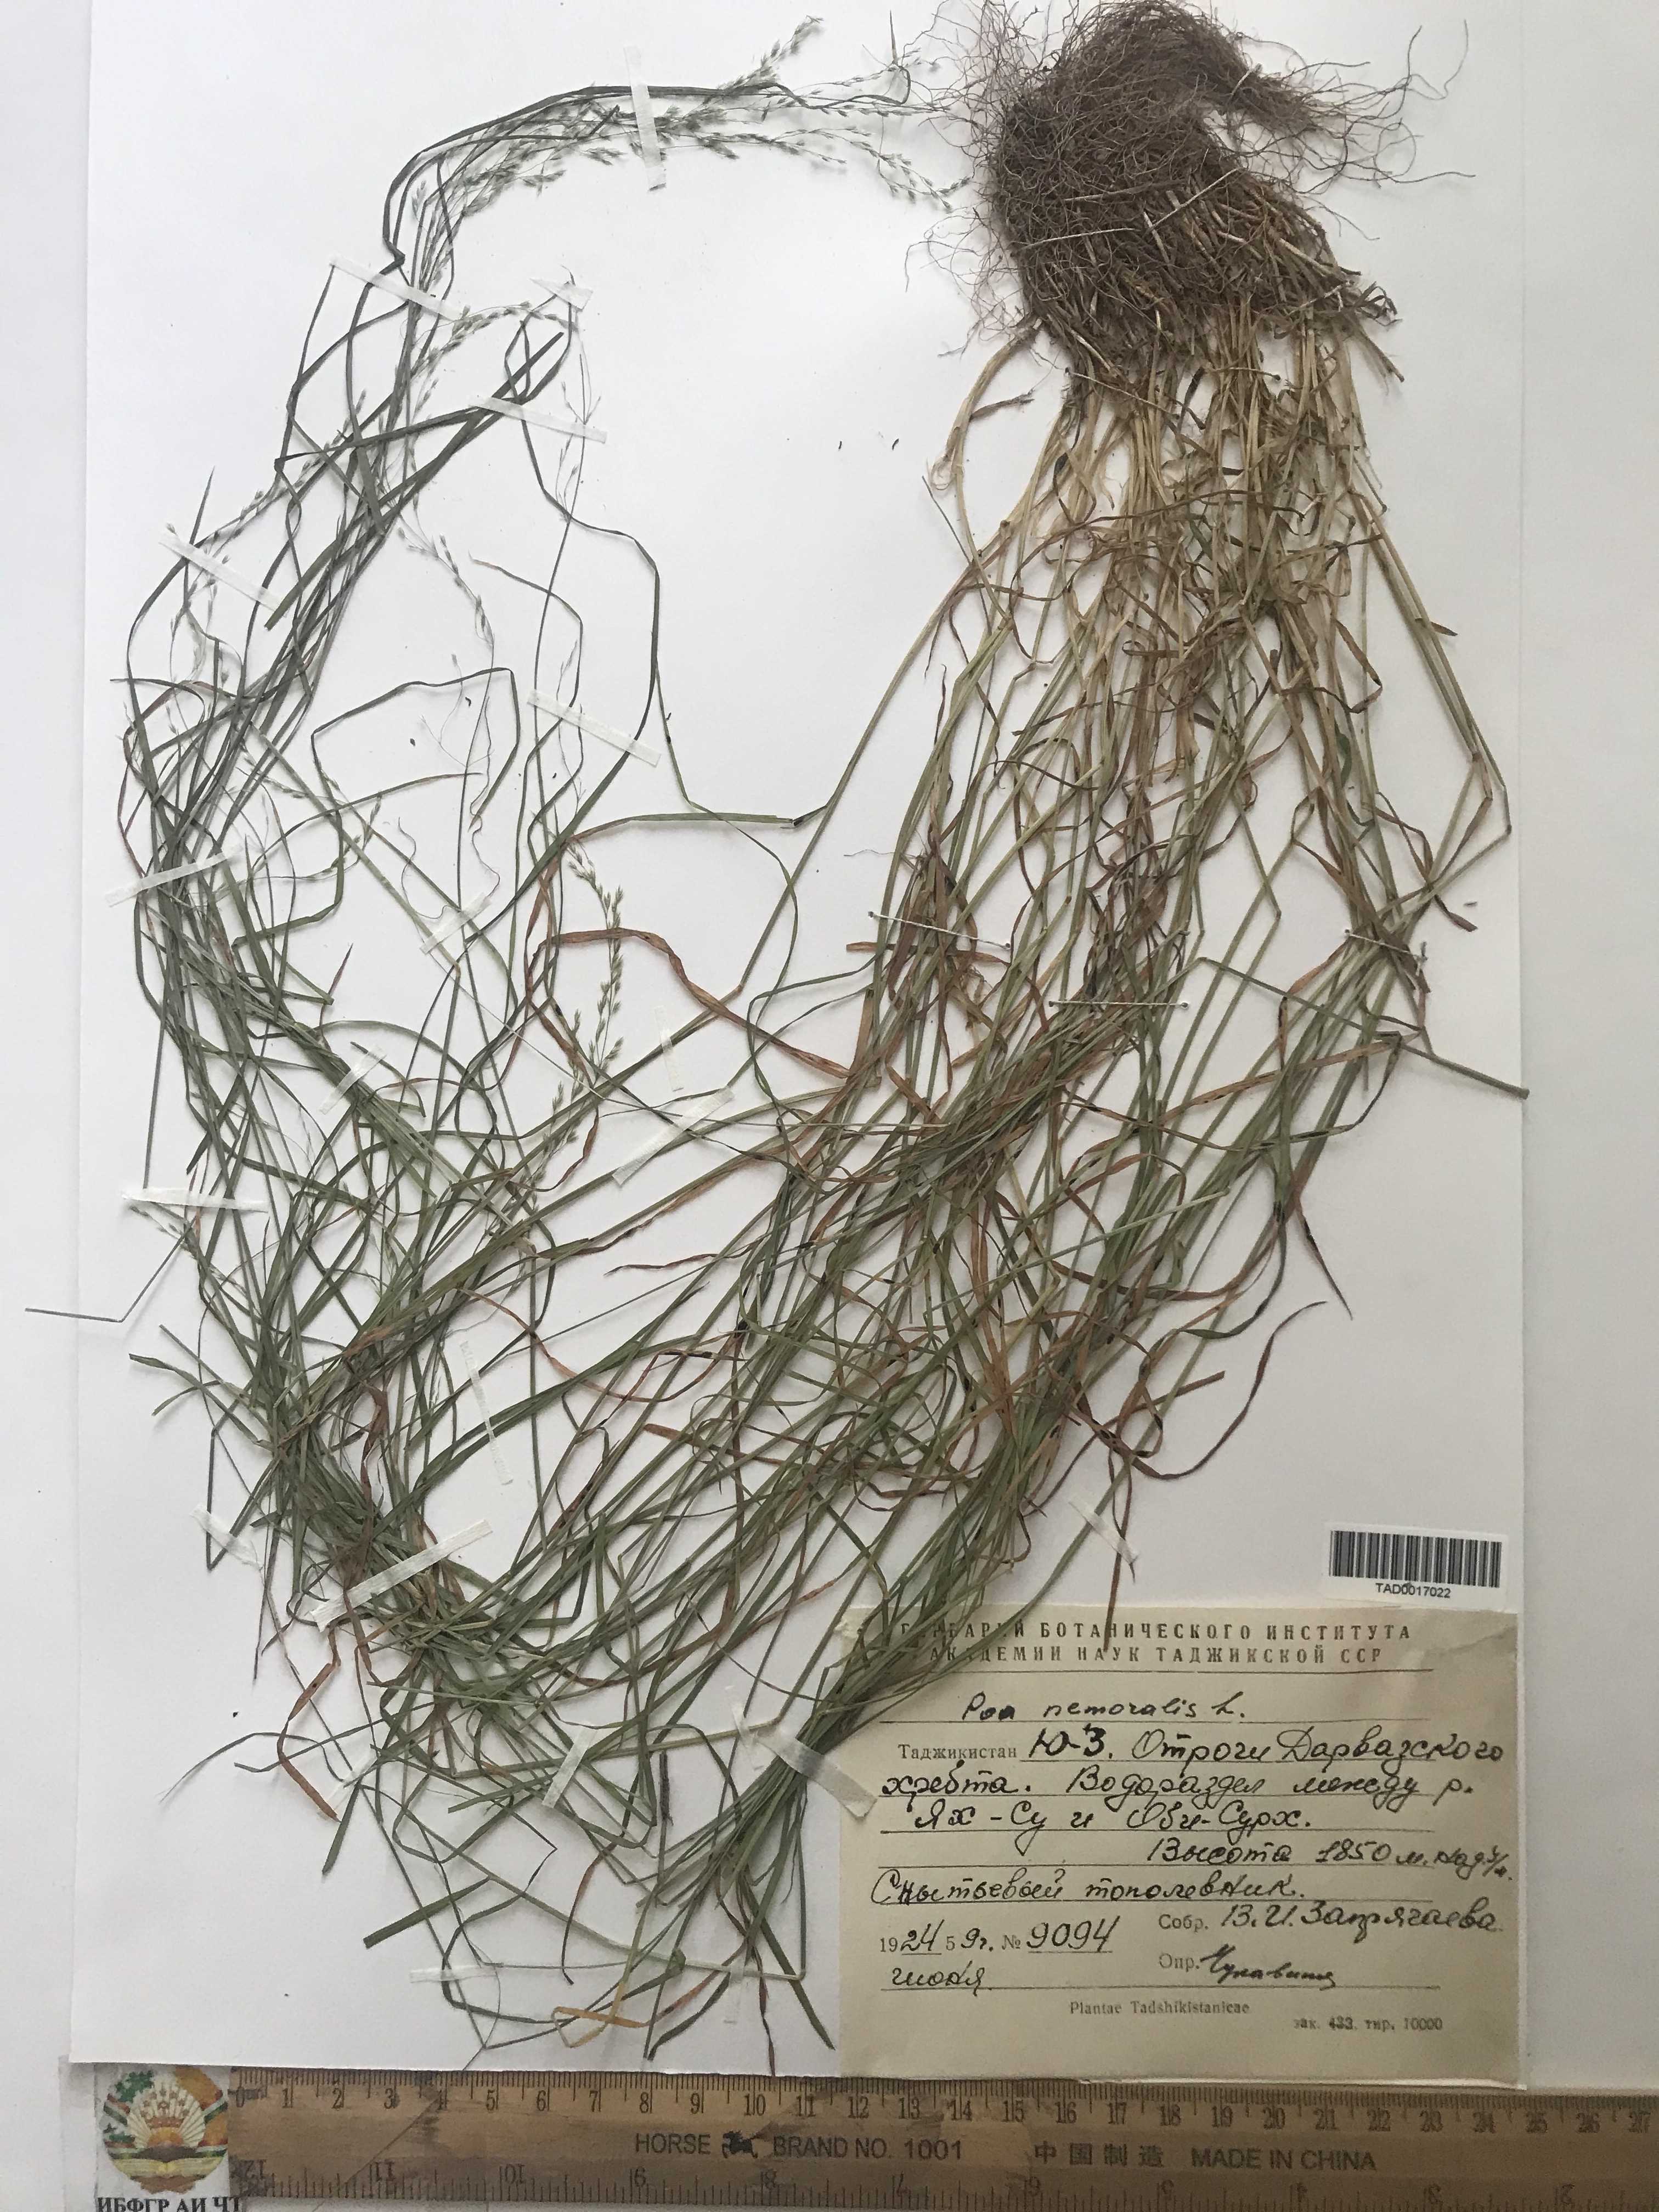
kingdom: Plantae
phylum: Tracheophyta
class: Liliopsida
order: Poales
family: Poaceae
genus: Poa
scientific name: Poa nemoralis
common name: Wood bluegrass
